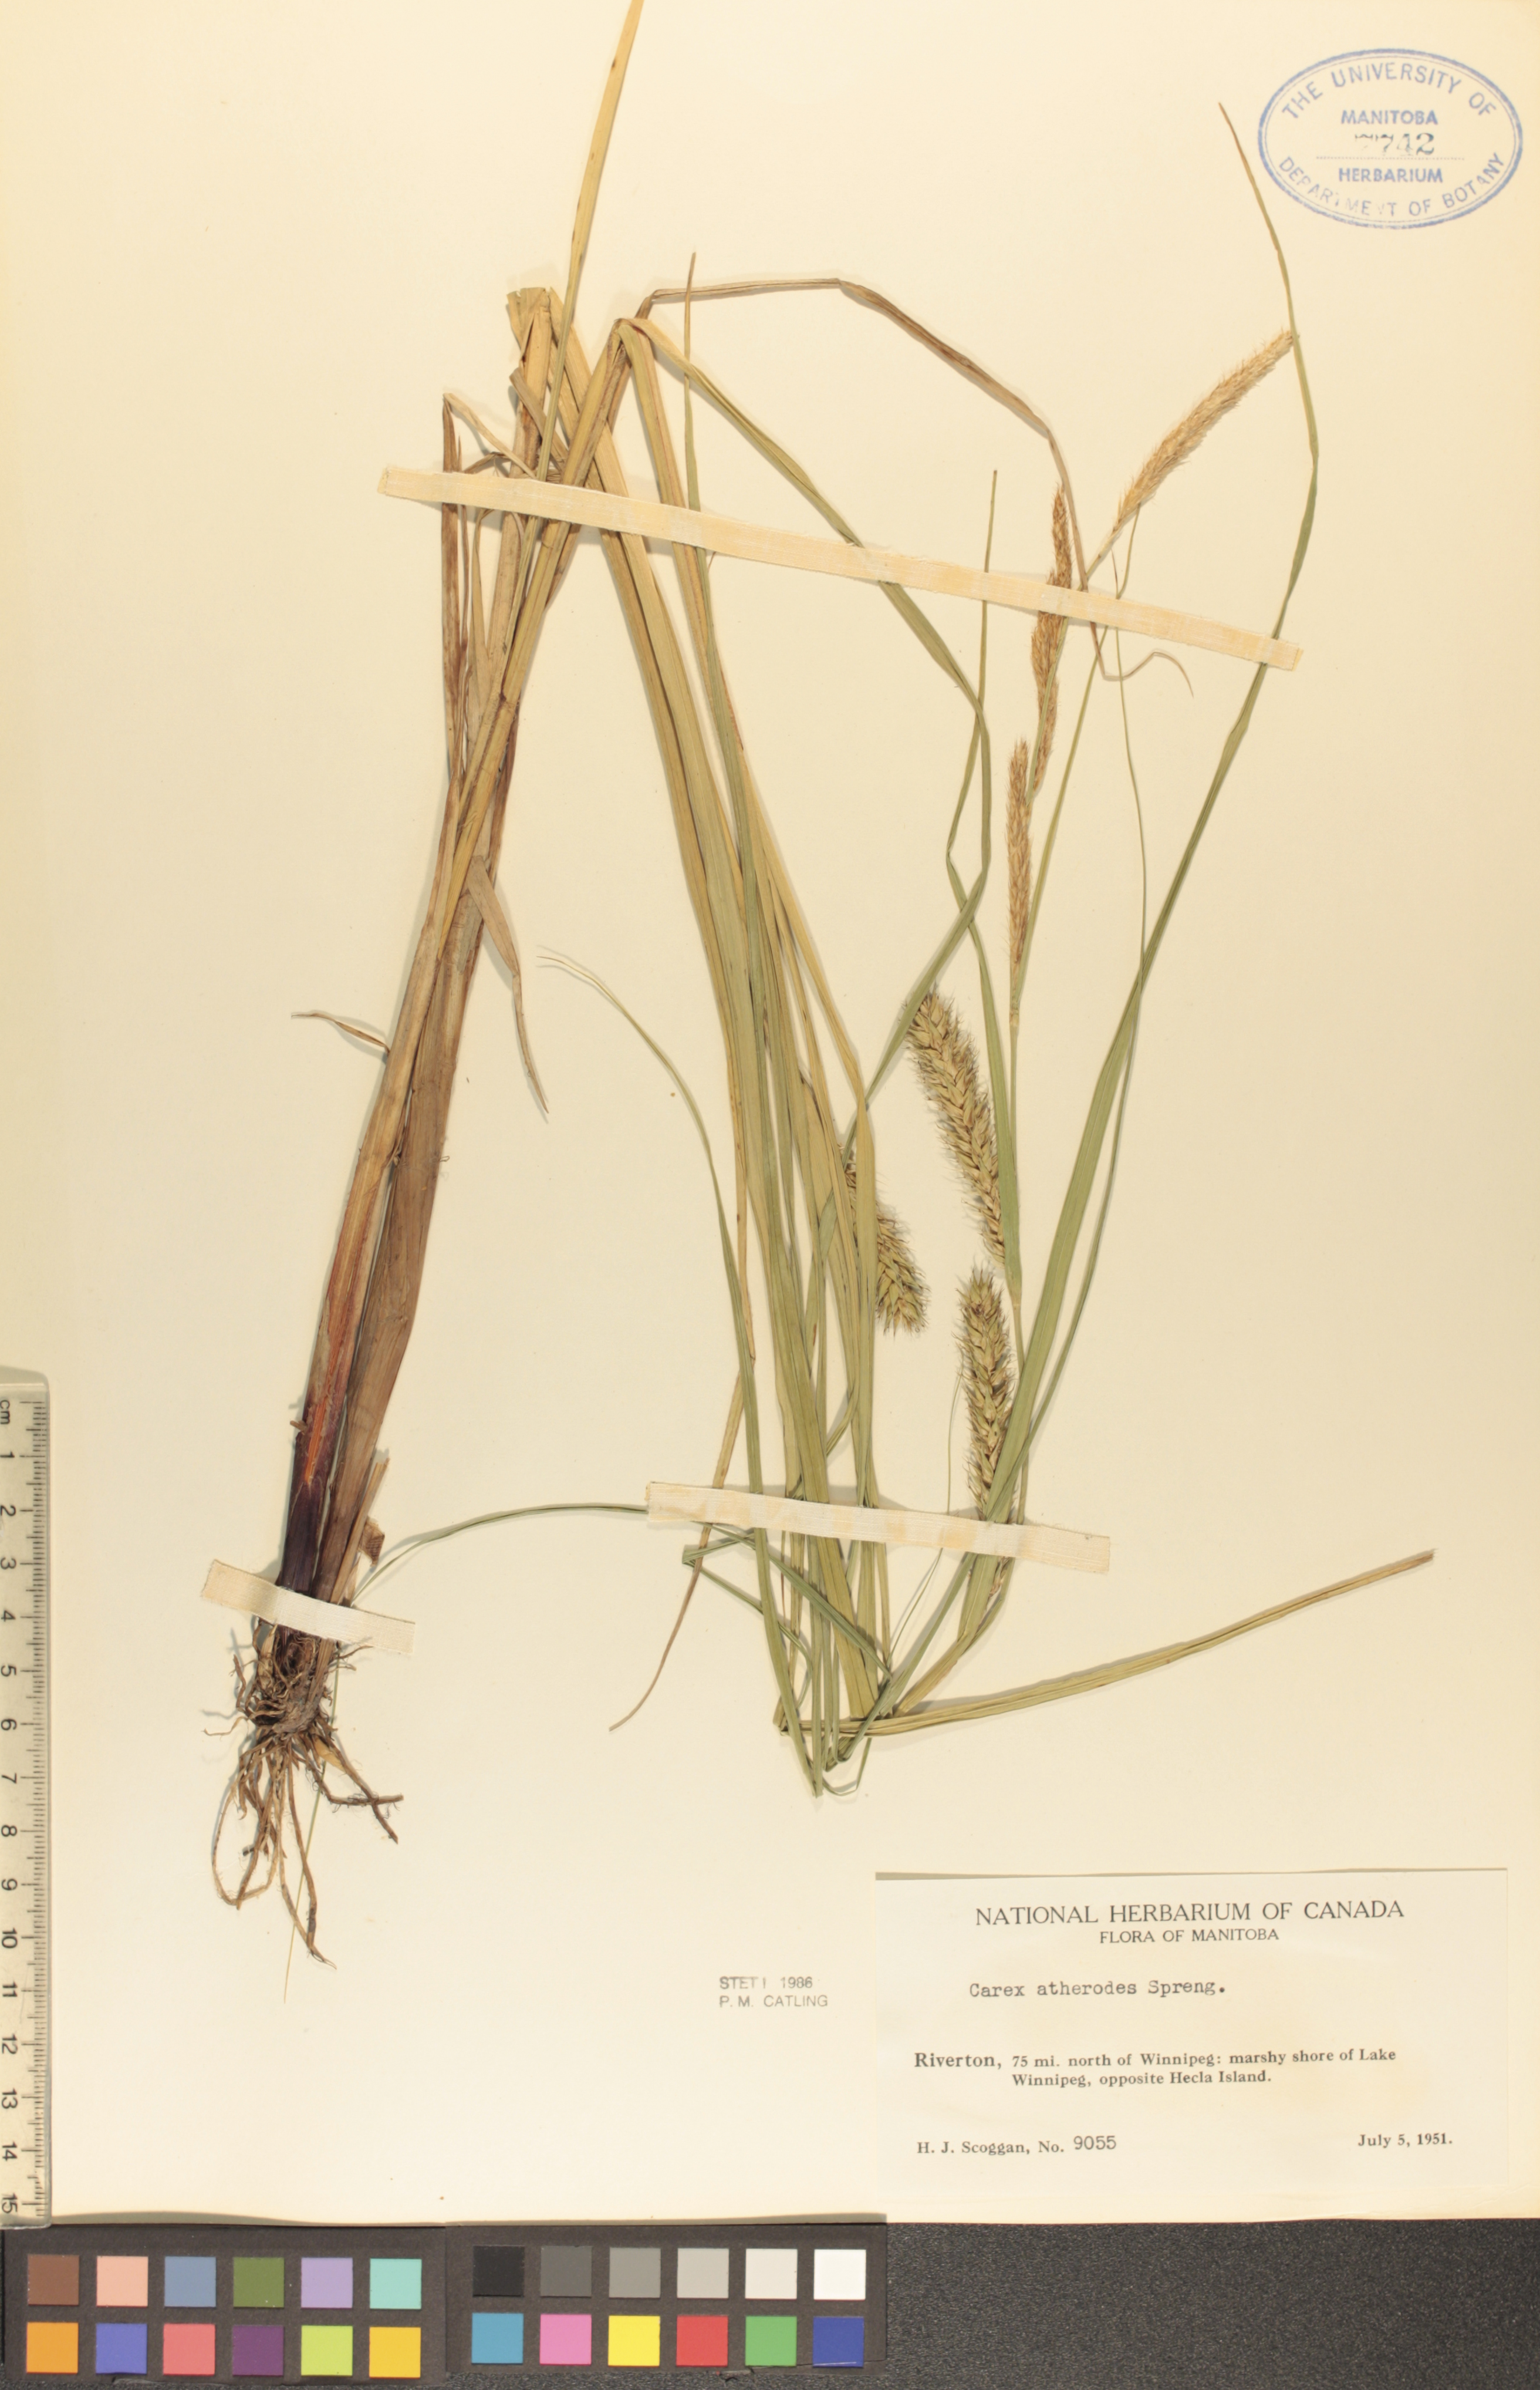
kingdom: Plantae
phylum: Tracheophyta
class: Liliopsida
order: Poales
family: Cyperaceae
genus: Carex
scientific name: Carex atherodes
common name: Wheat sedge
